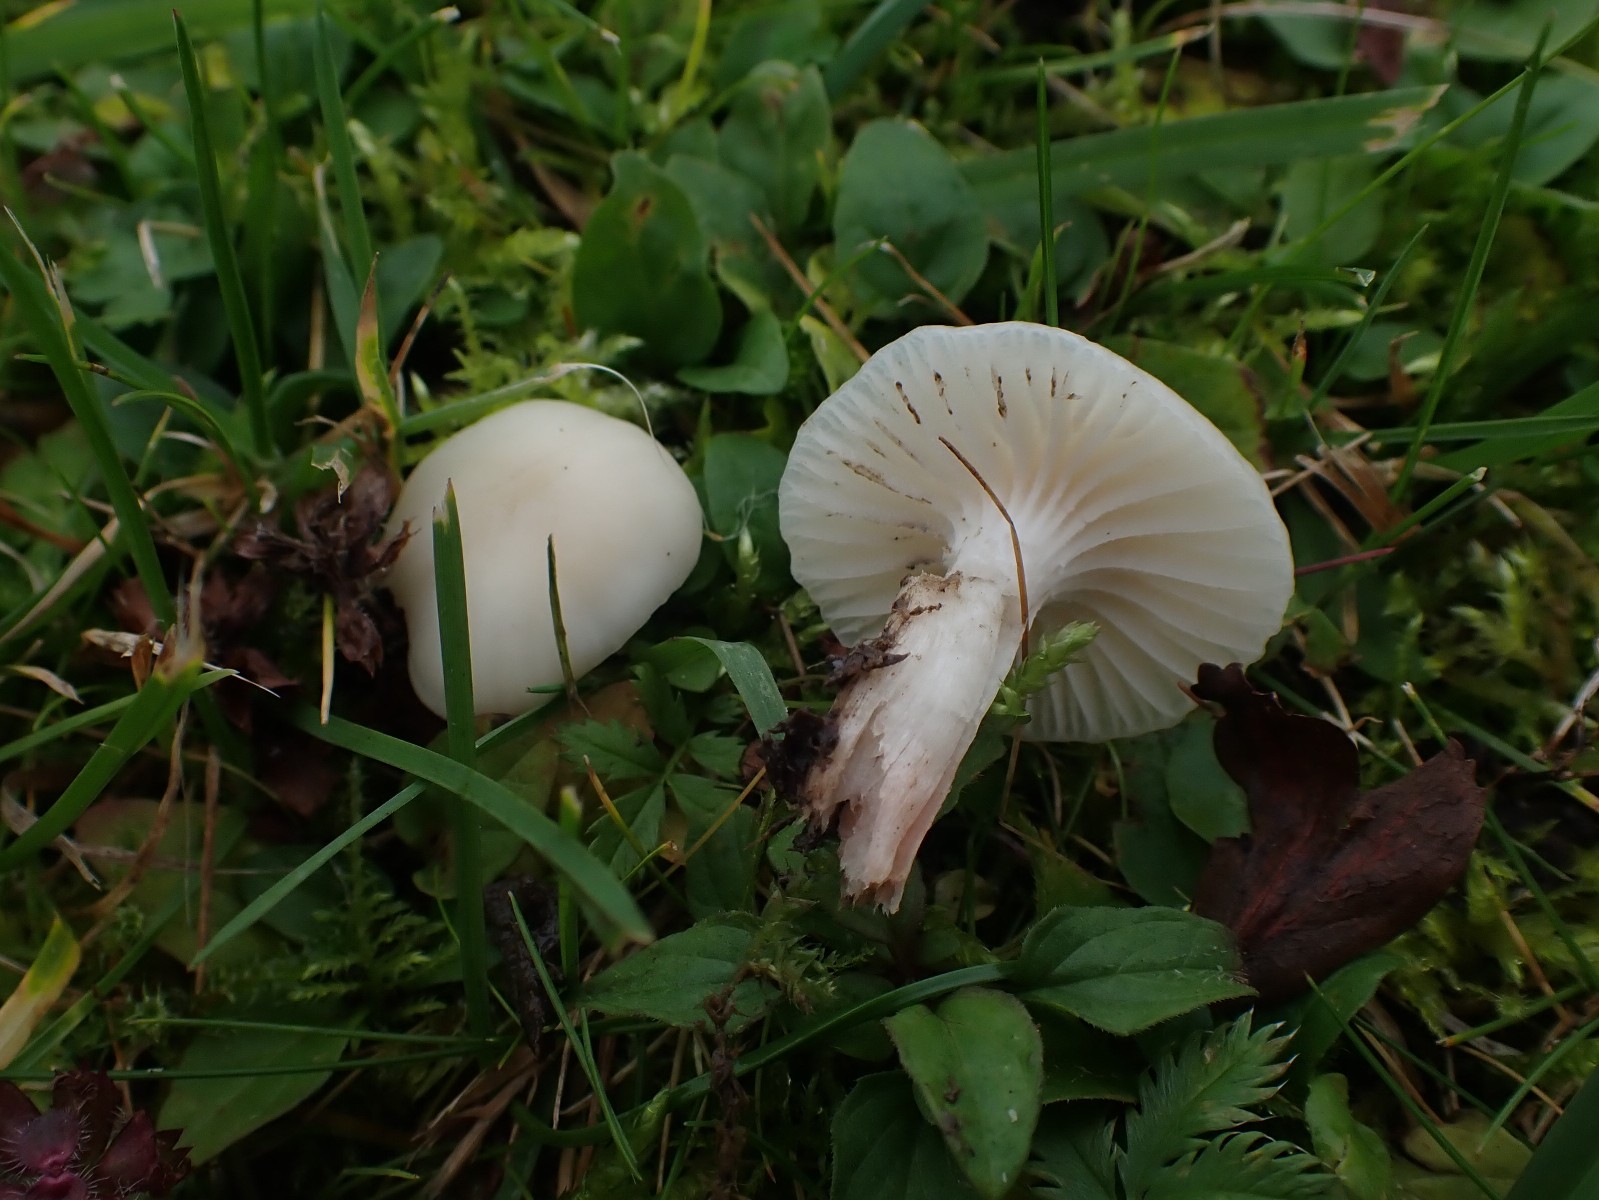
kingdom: Fungi
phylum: Basidiomycota
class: Agaricomycetes
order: Agaricales
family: Hygrophoraceae
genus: Cuphophyllus
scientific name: Cuphophyllus virgineus
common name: snehvid vokshat
